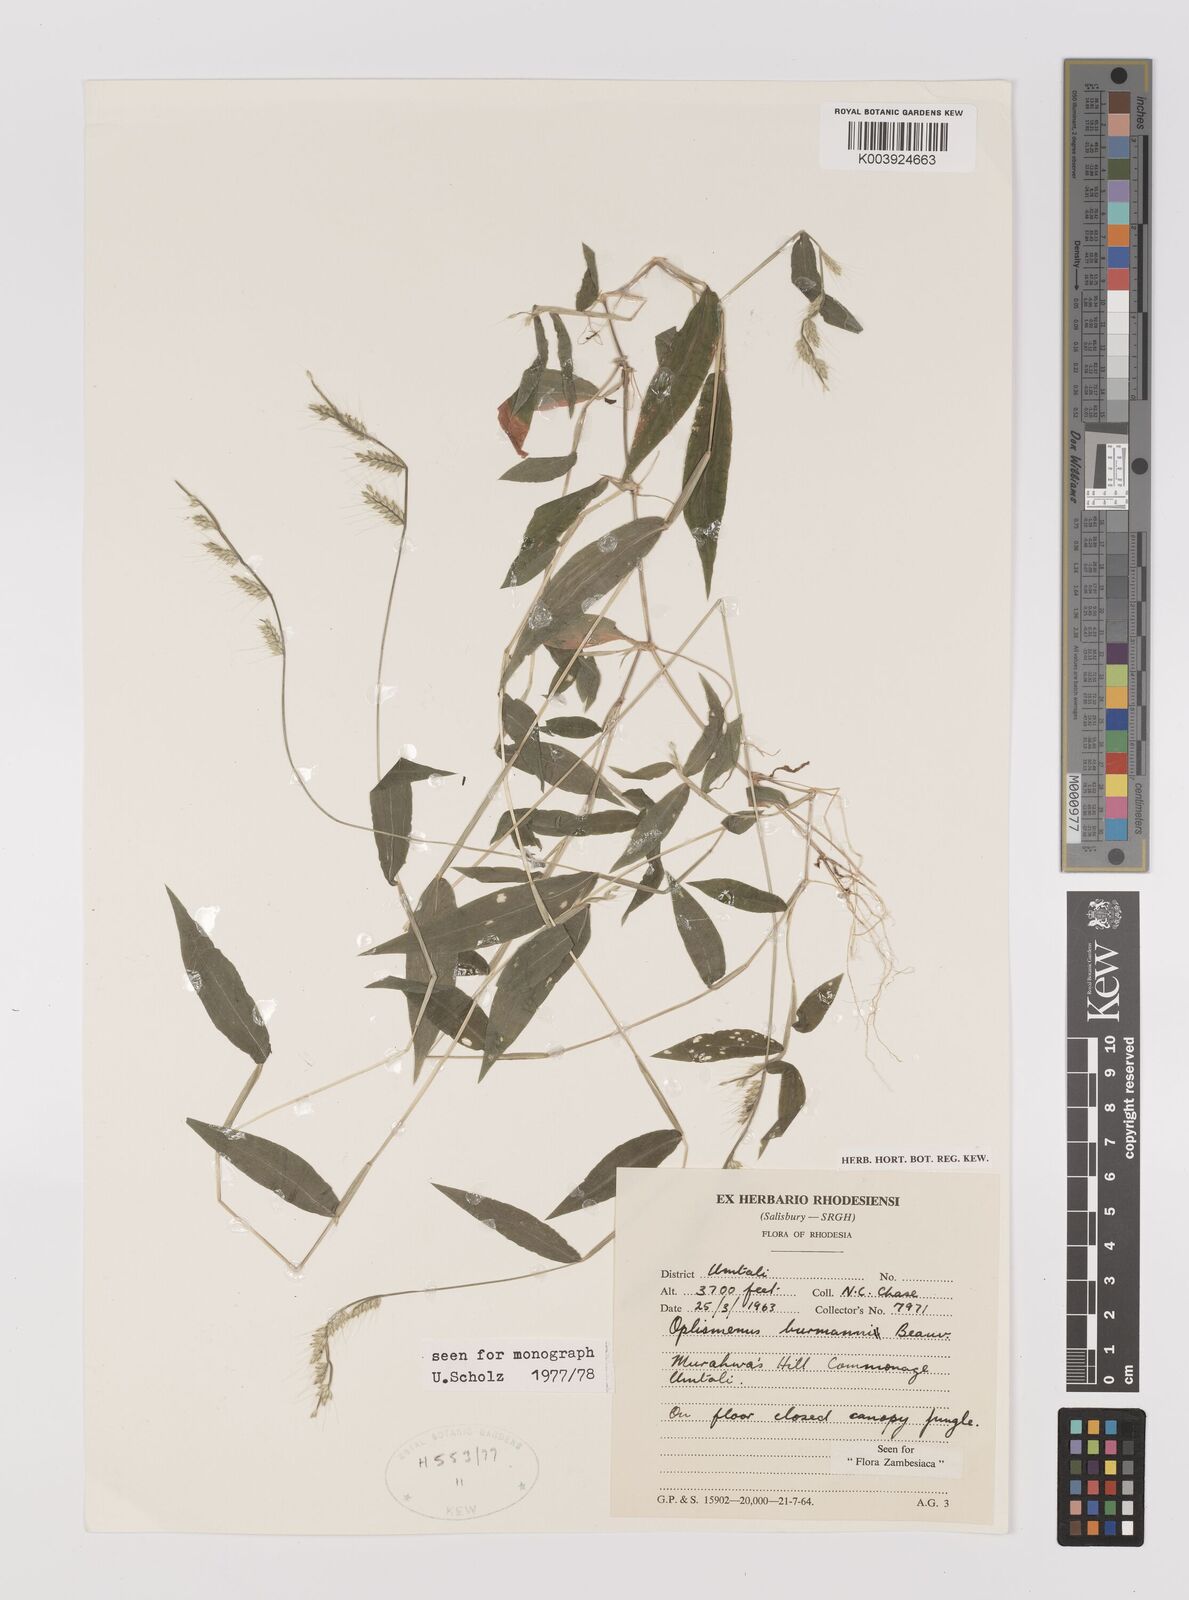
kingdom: Plantae
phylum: Tracheophyta
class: Liliopsida
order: Poales
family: Poaceae
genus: Oplismenus
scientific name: Oplismenus burmanni
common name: Burmann's basketgrass
